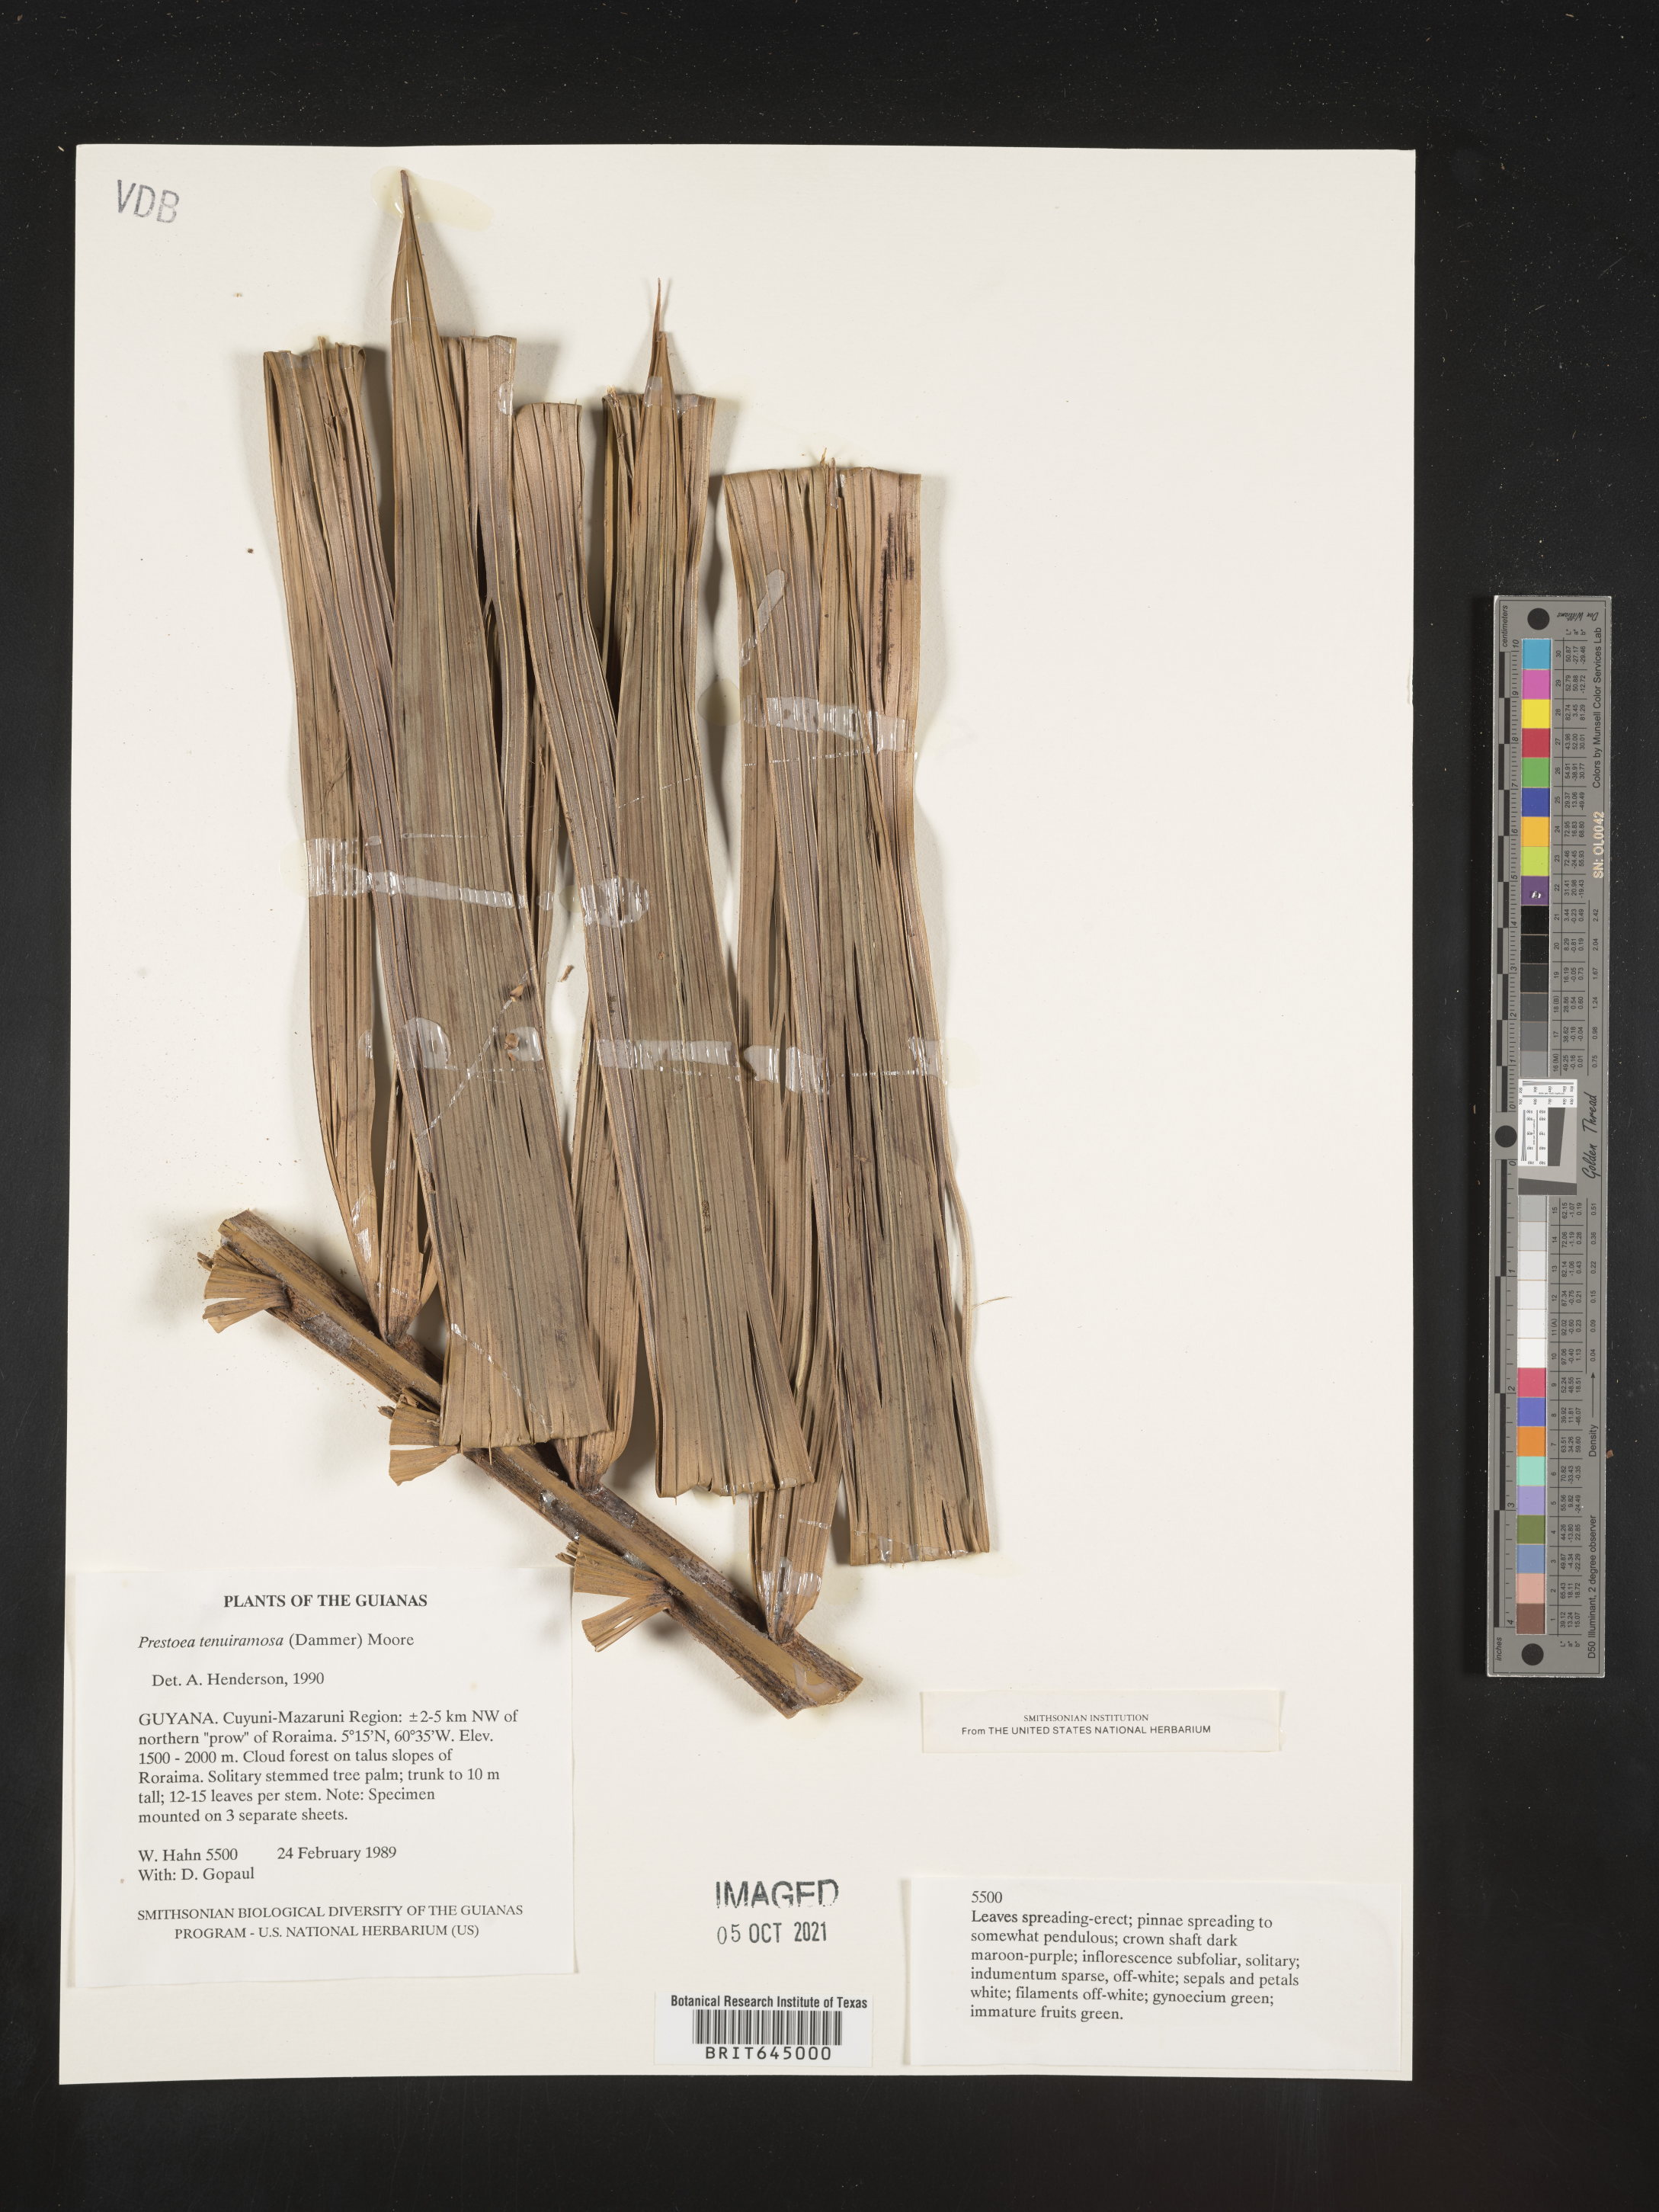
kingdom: Plantae
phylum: Tracheophyta
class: Liliopsida
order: Arecales
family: Arecaceae
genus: Prestoea
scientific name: Prestoea tenuiramosa
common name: Guyana manicole palm
